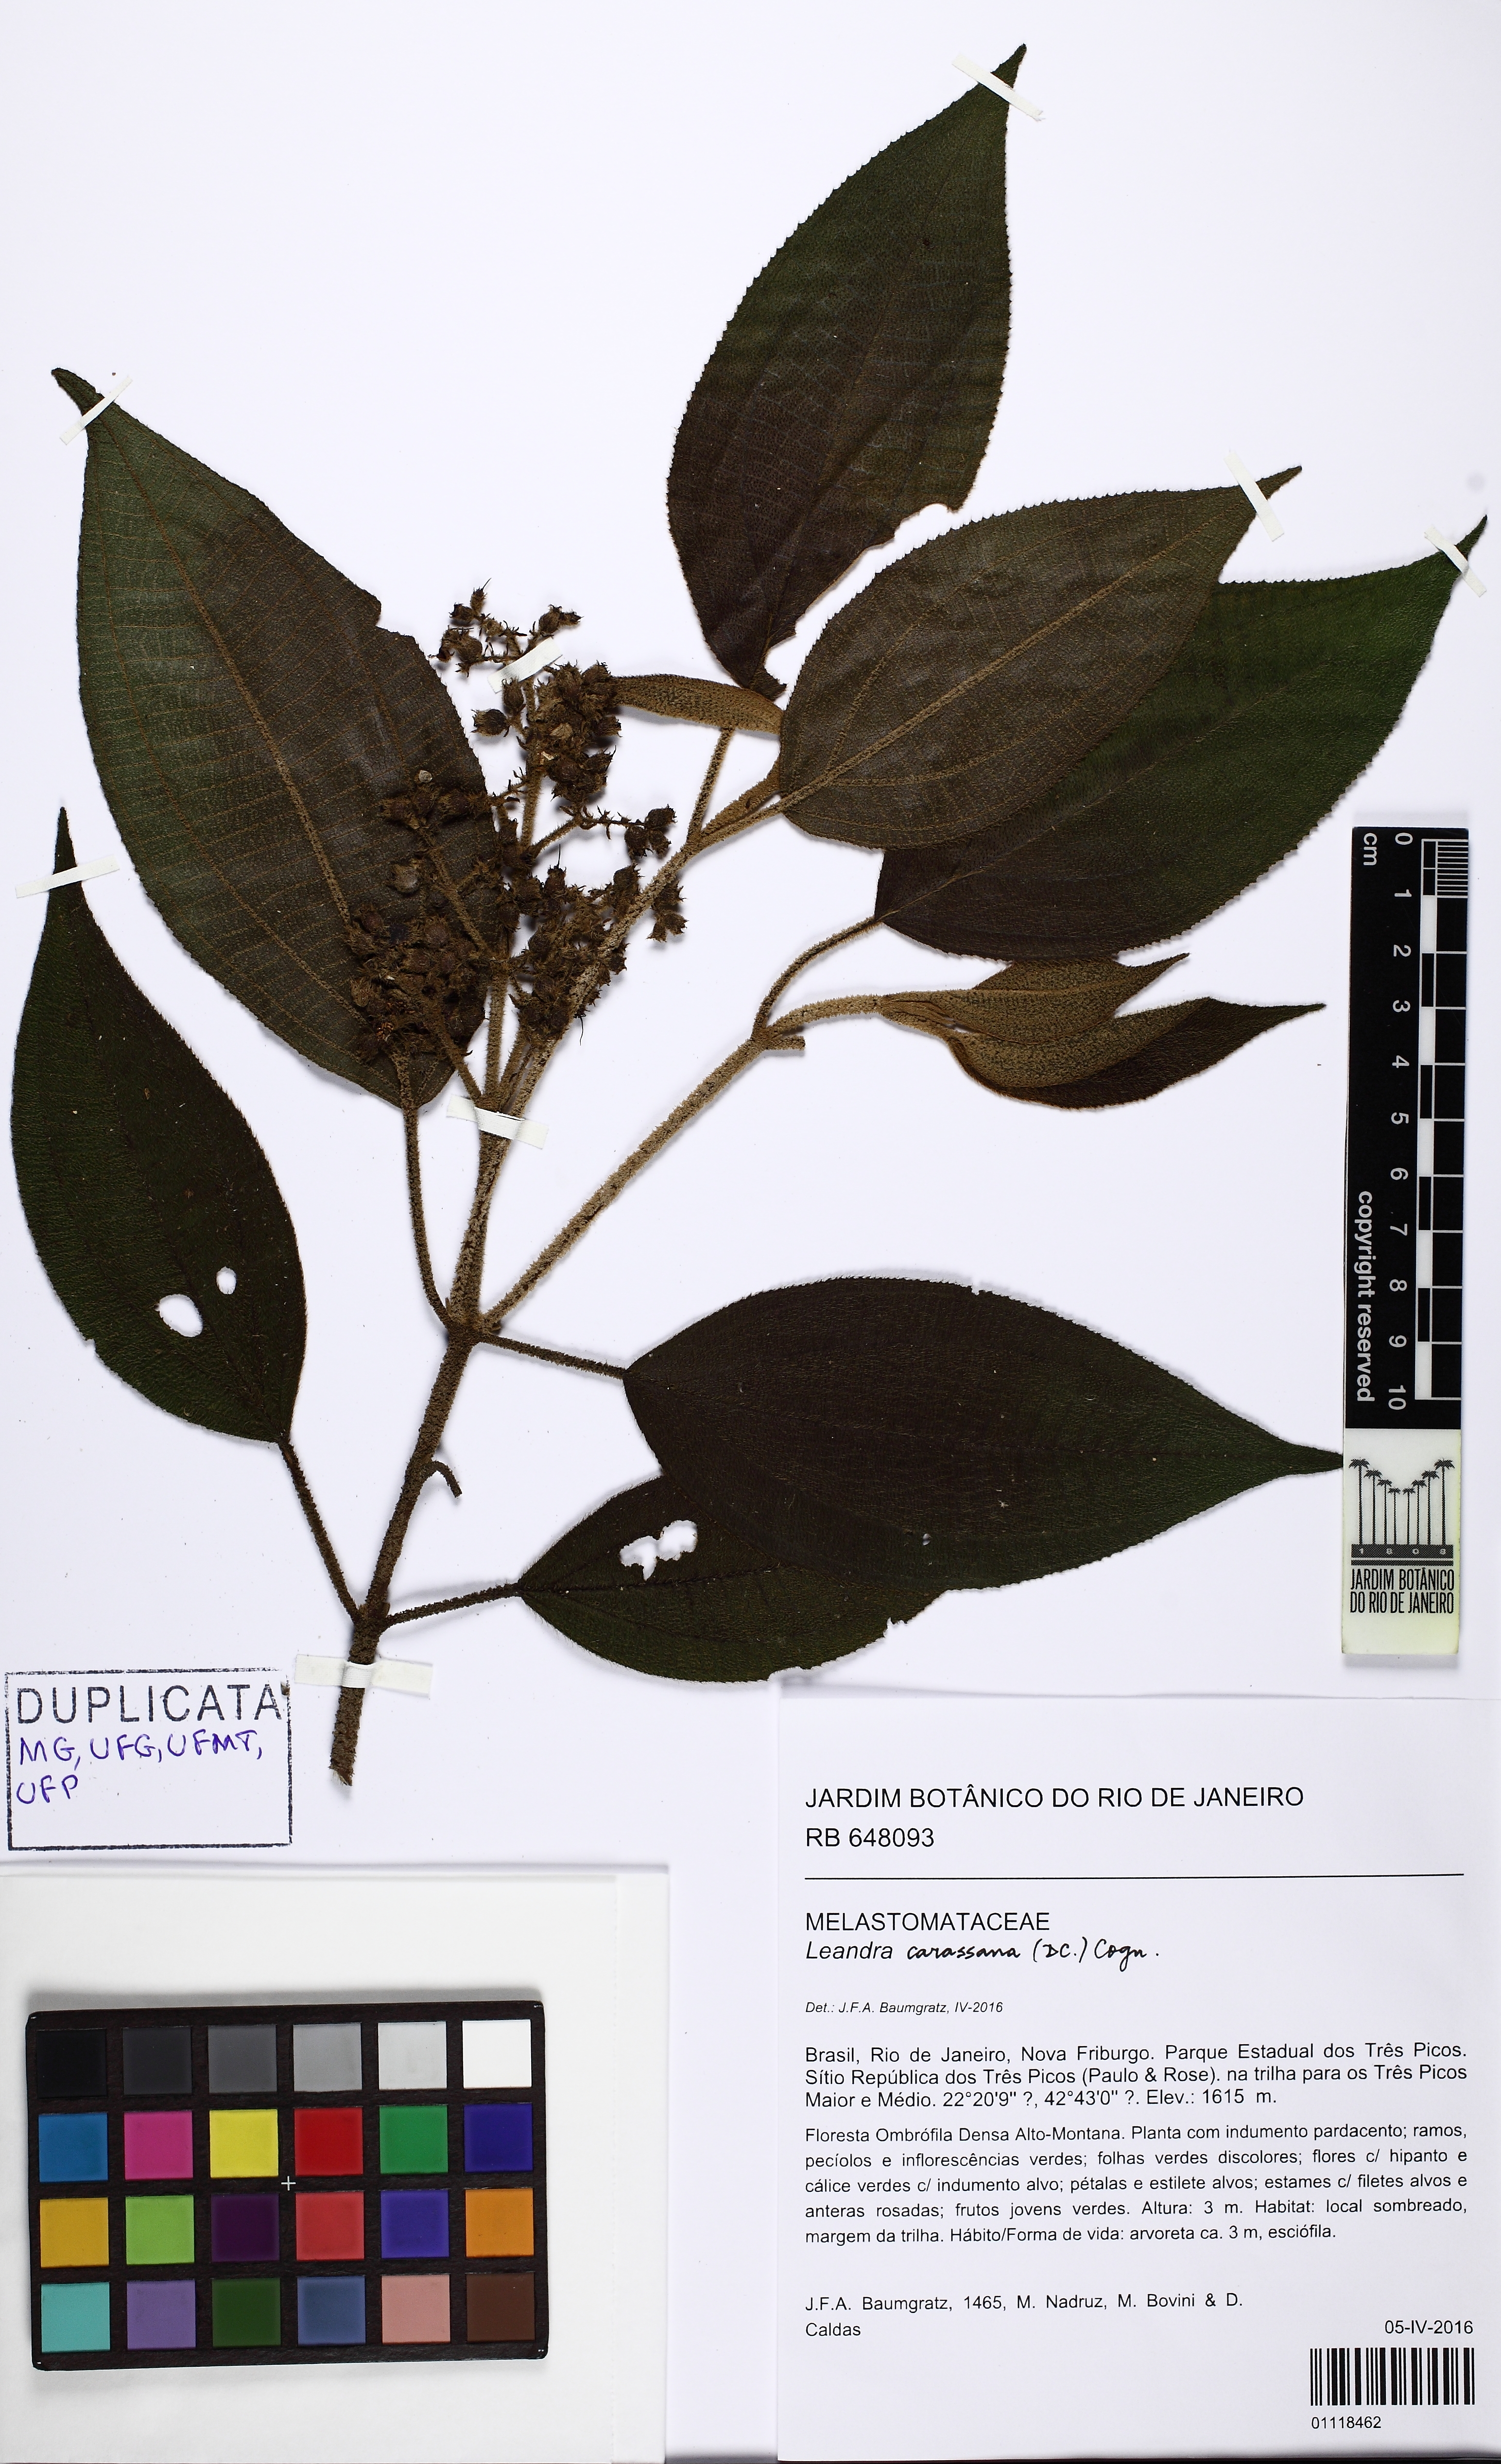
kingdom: Plantae
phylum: Tracheophyta
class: Magnoliopsida
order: Myrtales
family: Melastomataceae
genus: Miconia
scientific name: Miconia sublanata
